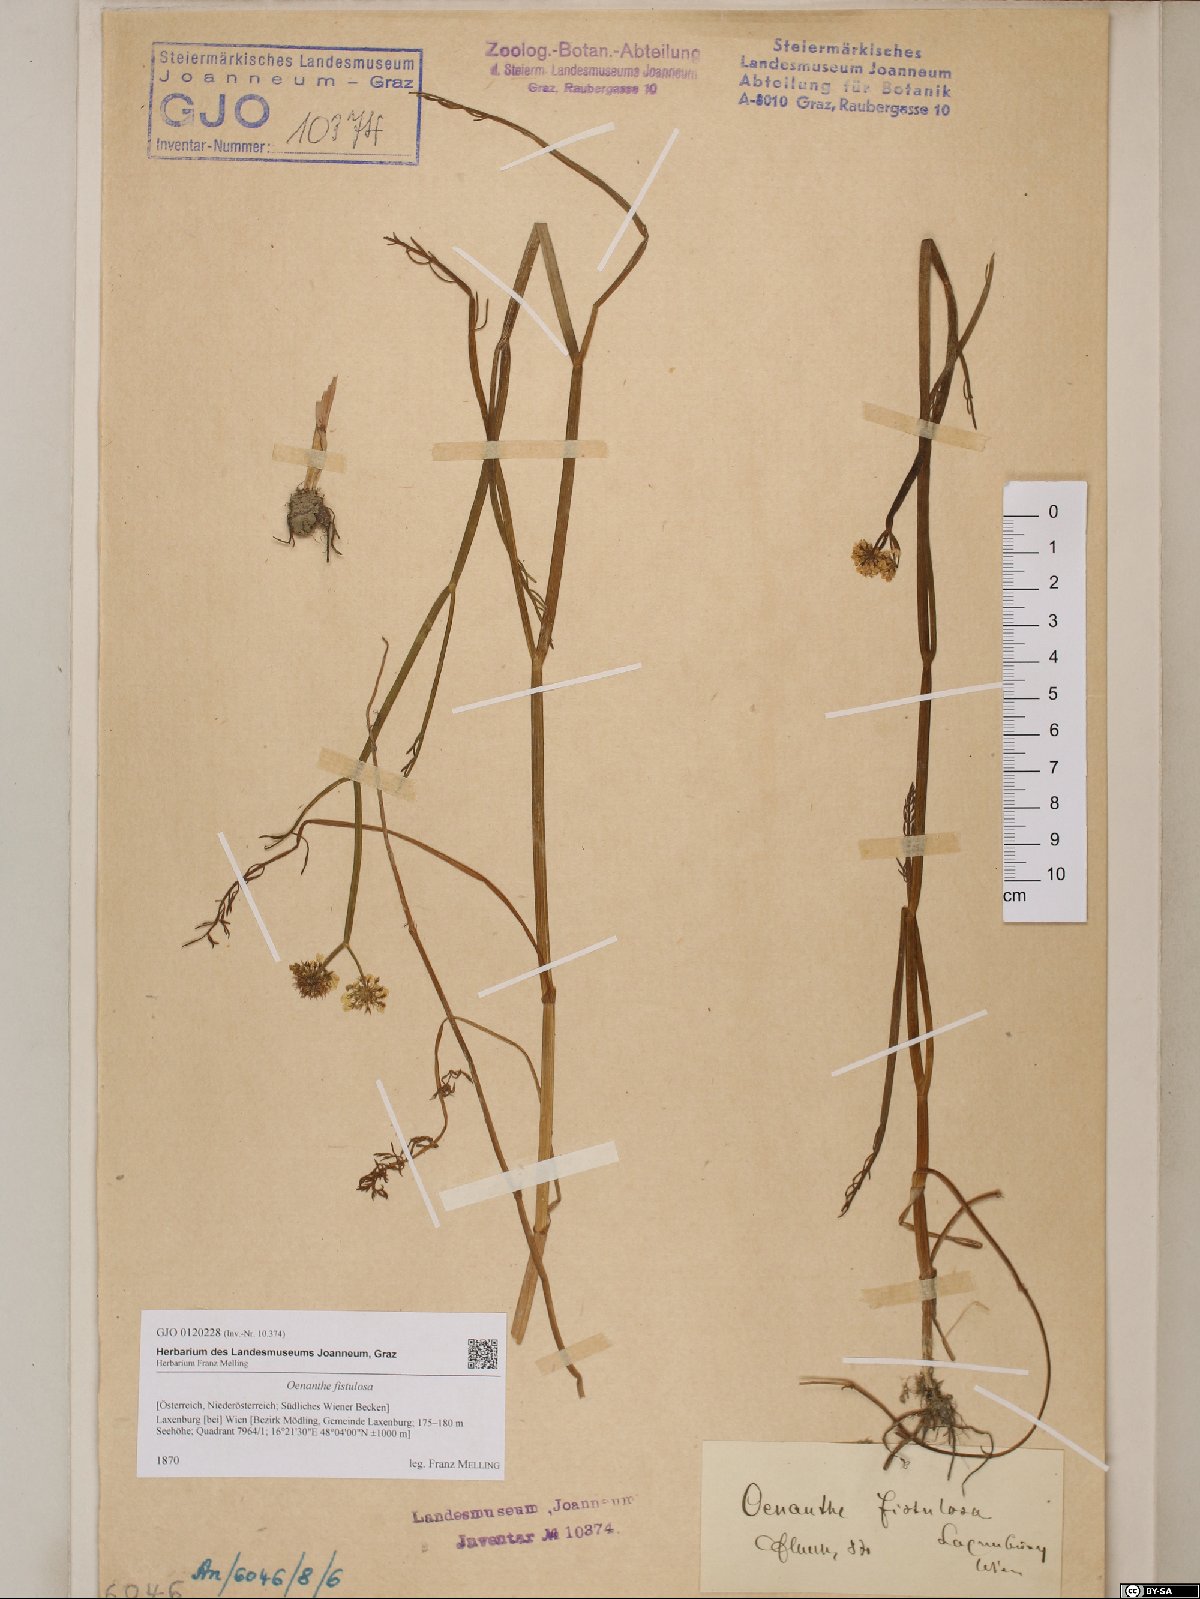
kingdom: Plantae
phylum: Tracheophyta
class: Magnoliopsida
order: Apiales
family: Apiaceae
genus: Oenanthe
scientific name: Oenanthe fistulosa
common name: Tubular water-dropwort
